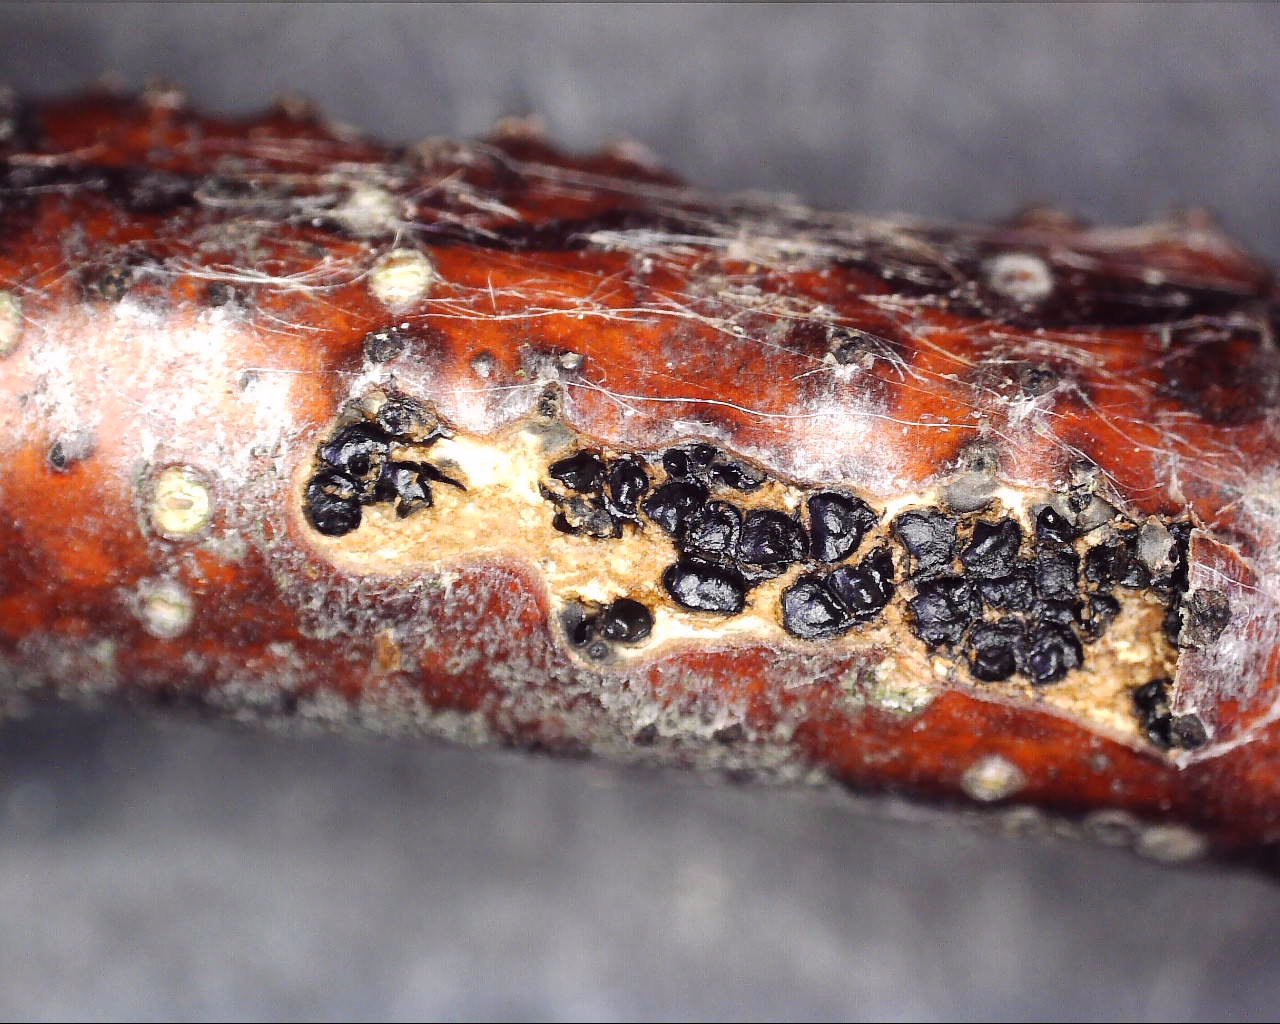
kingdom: Fungi
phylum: Ascomycota
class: Sordariomycetes
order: Xylariales
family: Diatrypaceae
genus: Eutypella
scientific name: Eutypella quaternata
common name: bøge-korsprik
